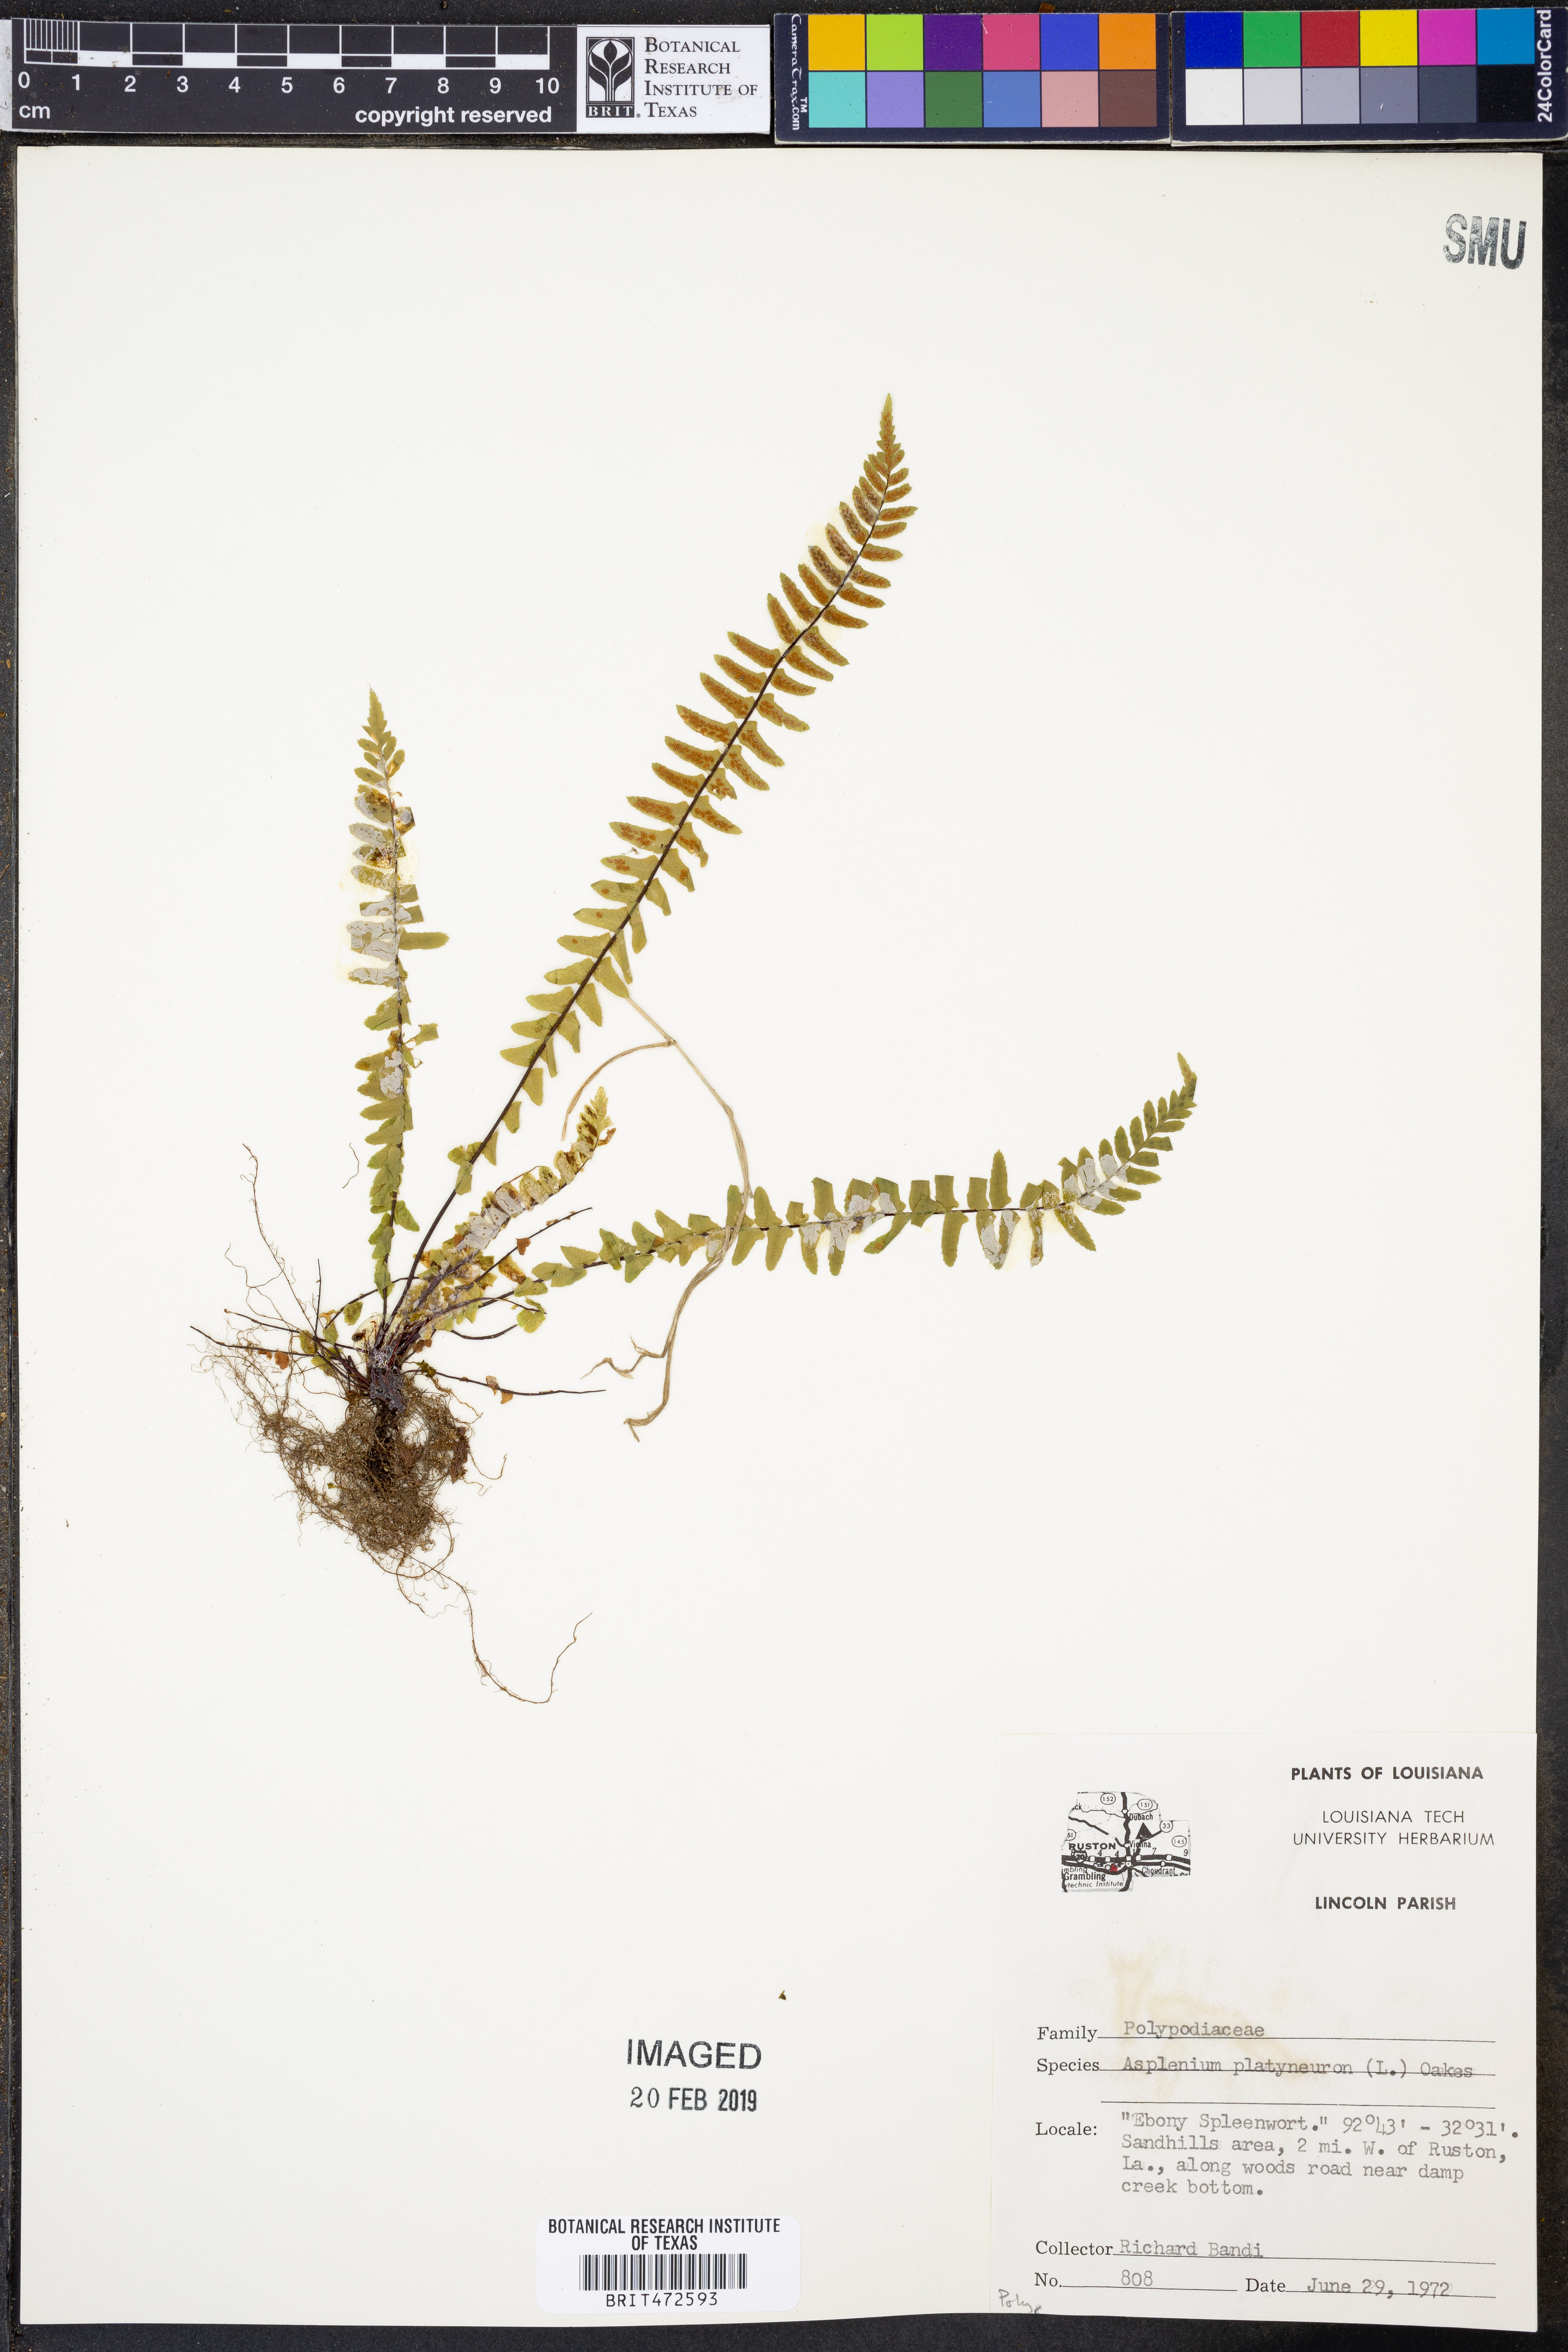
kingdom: Plantae
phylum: Tracheophyta
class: Polypodiopsida
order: Polypodiales
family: Aspleniaceae
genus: Asplenium
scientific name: Asplenium platyneuron
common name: Ebony spleenwort
